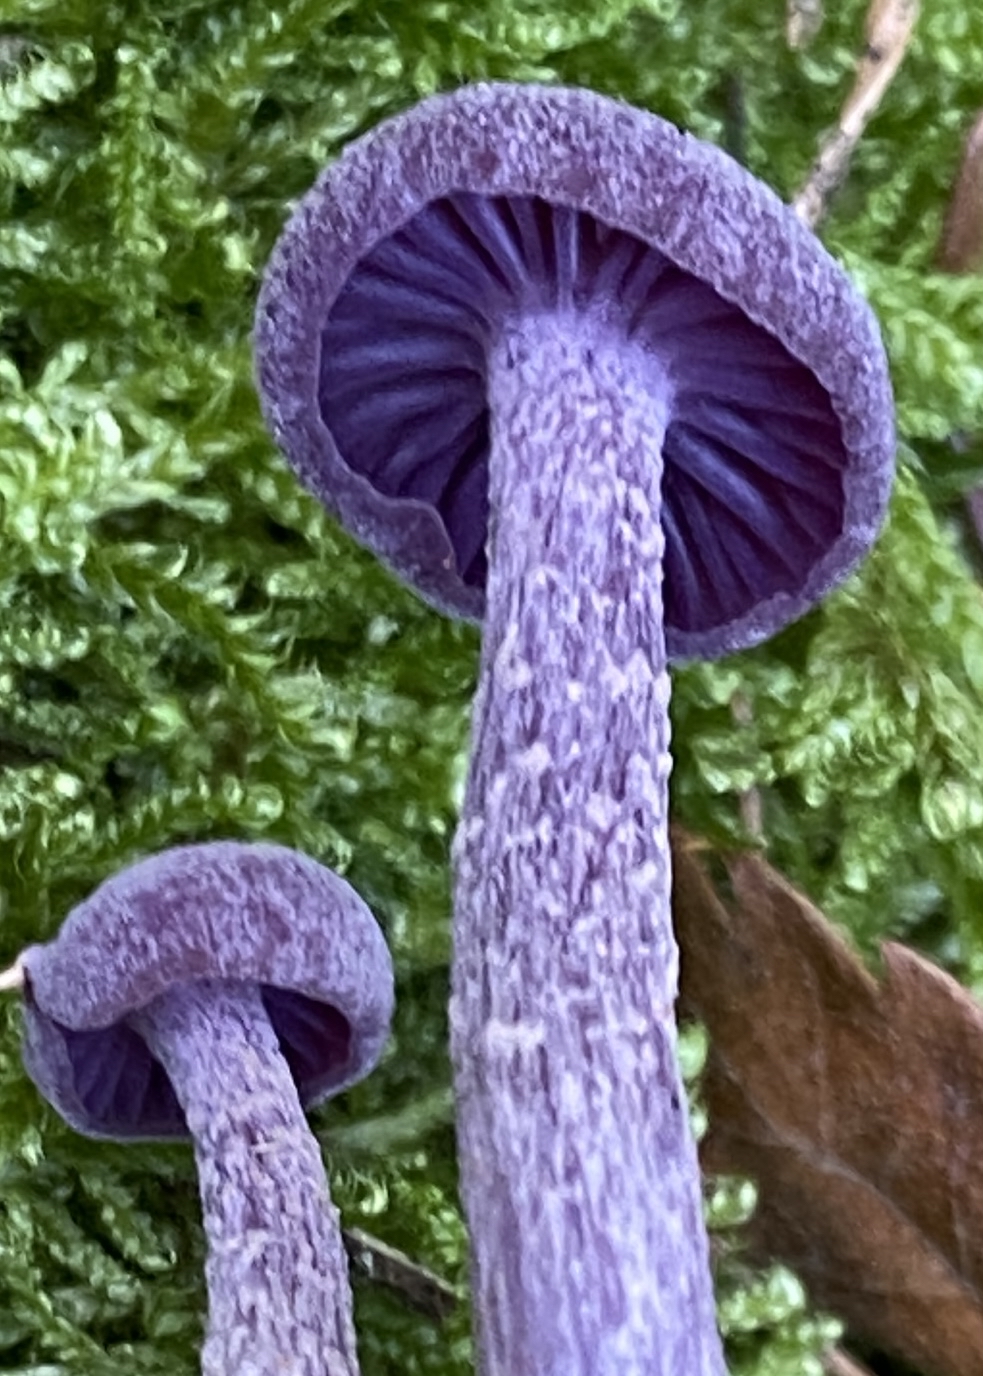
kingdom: Fungi
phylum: Basidiomycota
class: Agaricomycetes
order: Agaricales
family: Hydnangiaceae
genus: Laccaria
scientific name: Laccaria amethystina
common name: violet ametysthat
